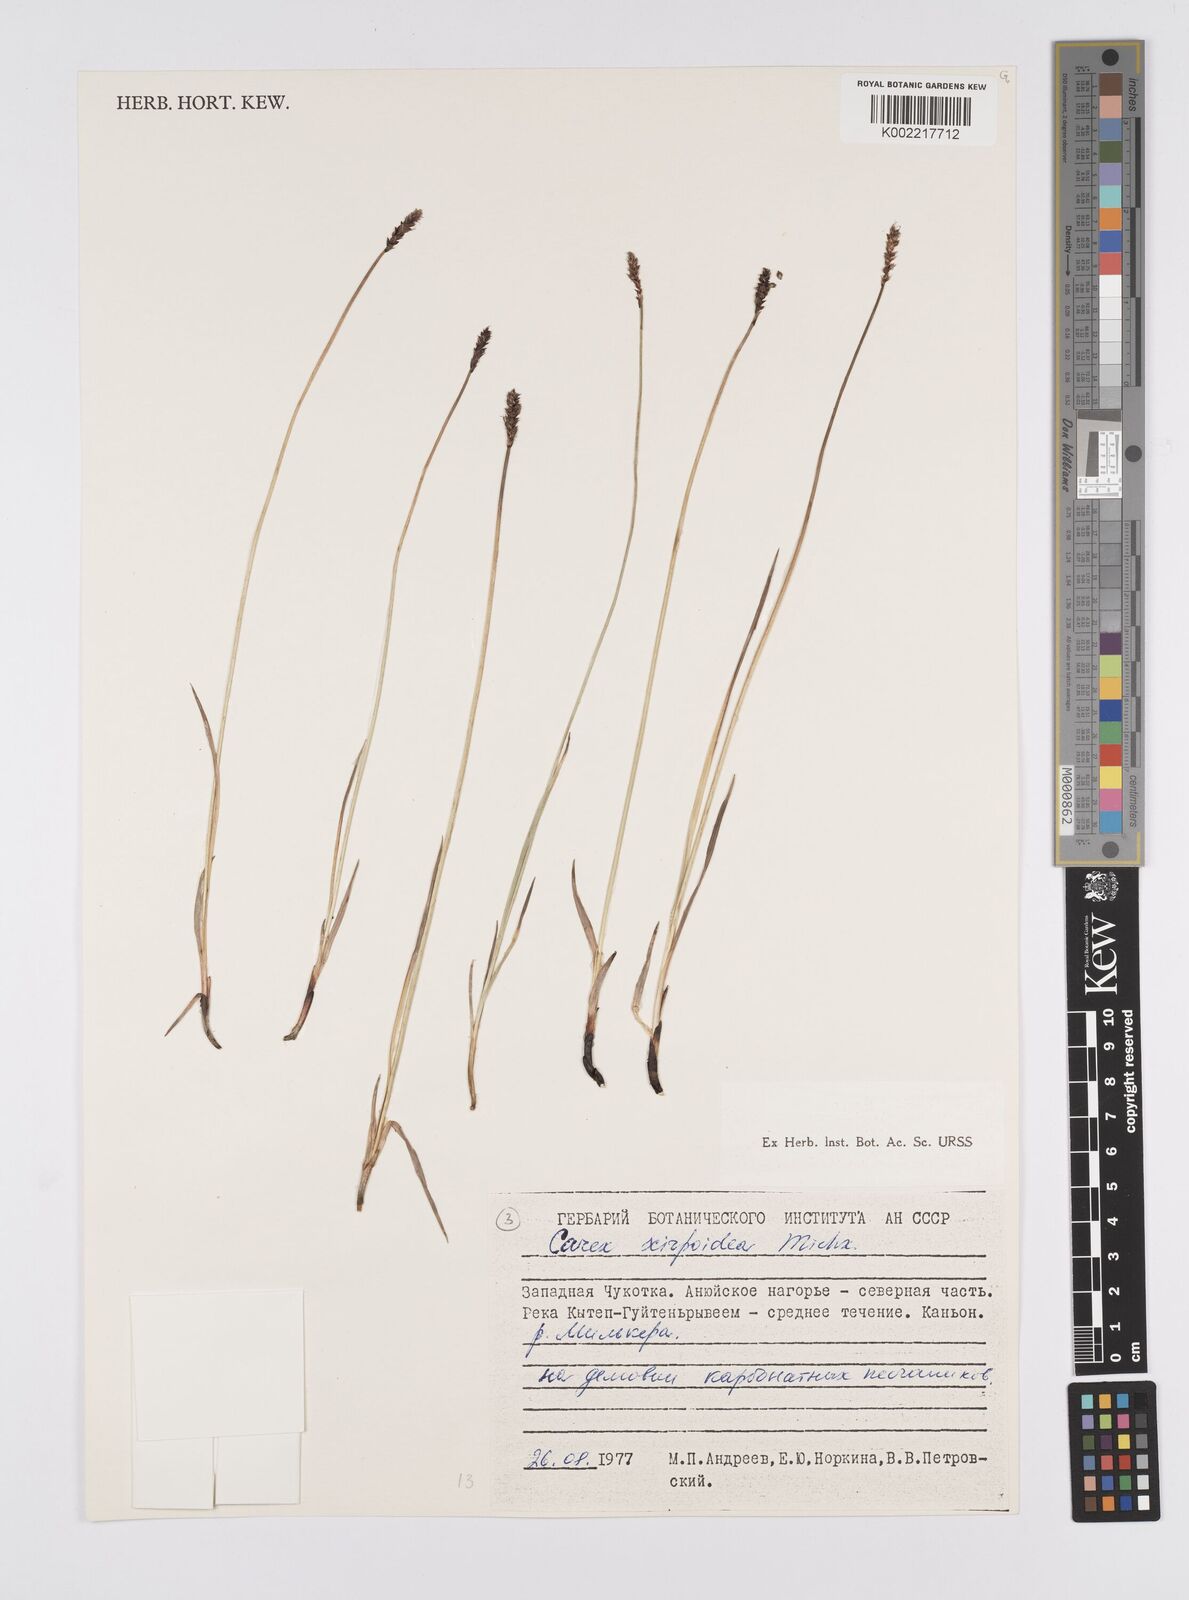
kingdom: Plantae
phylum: Tracheophyta
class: Liliopsida
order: Poales
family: Cyperaceae
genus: Carex
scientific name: Carex scirpoidea
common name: Canada single-spike sedge
